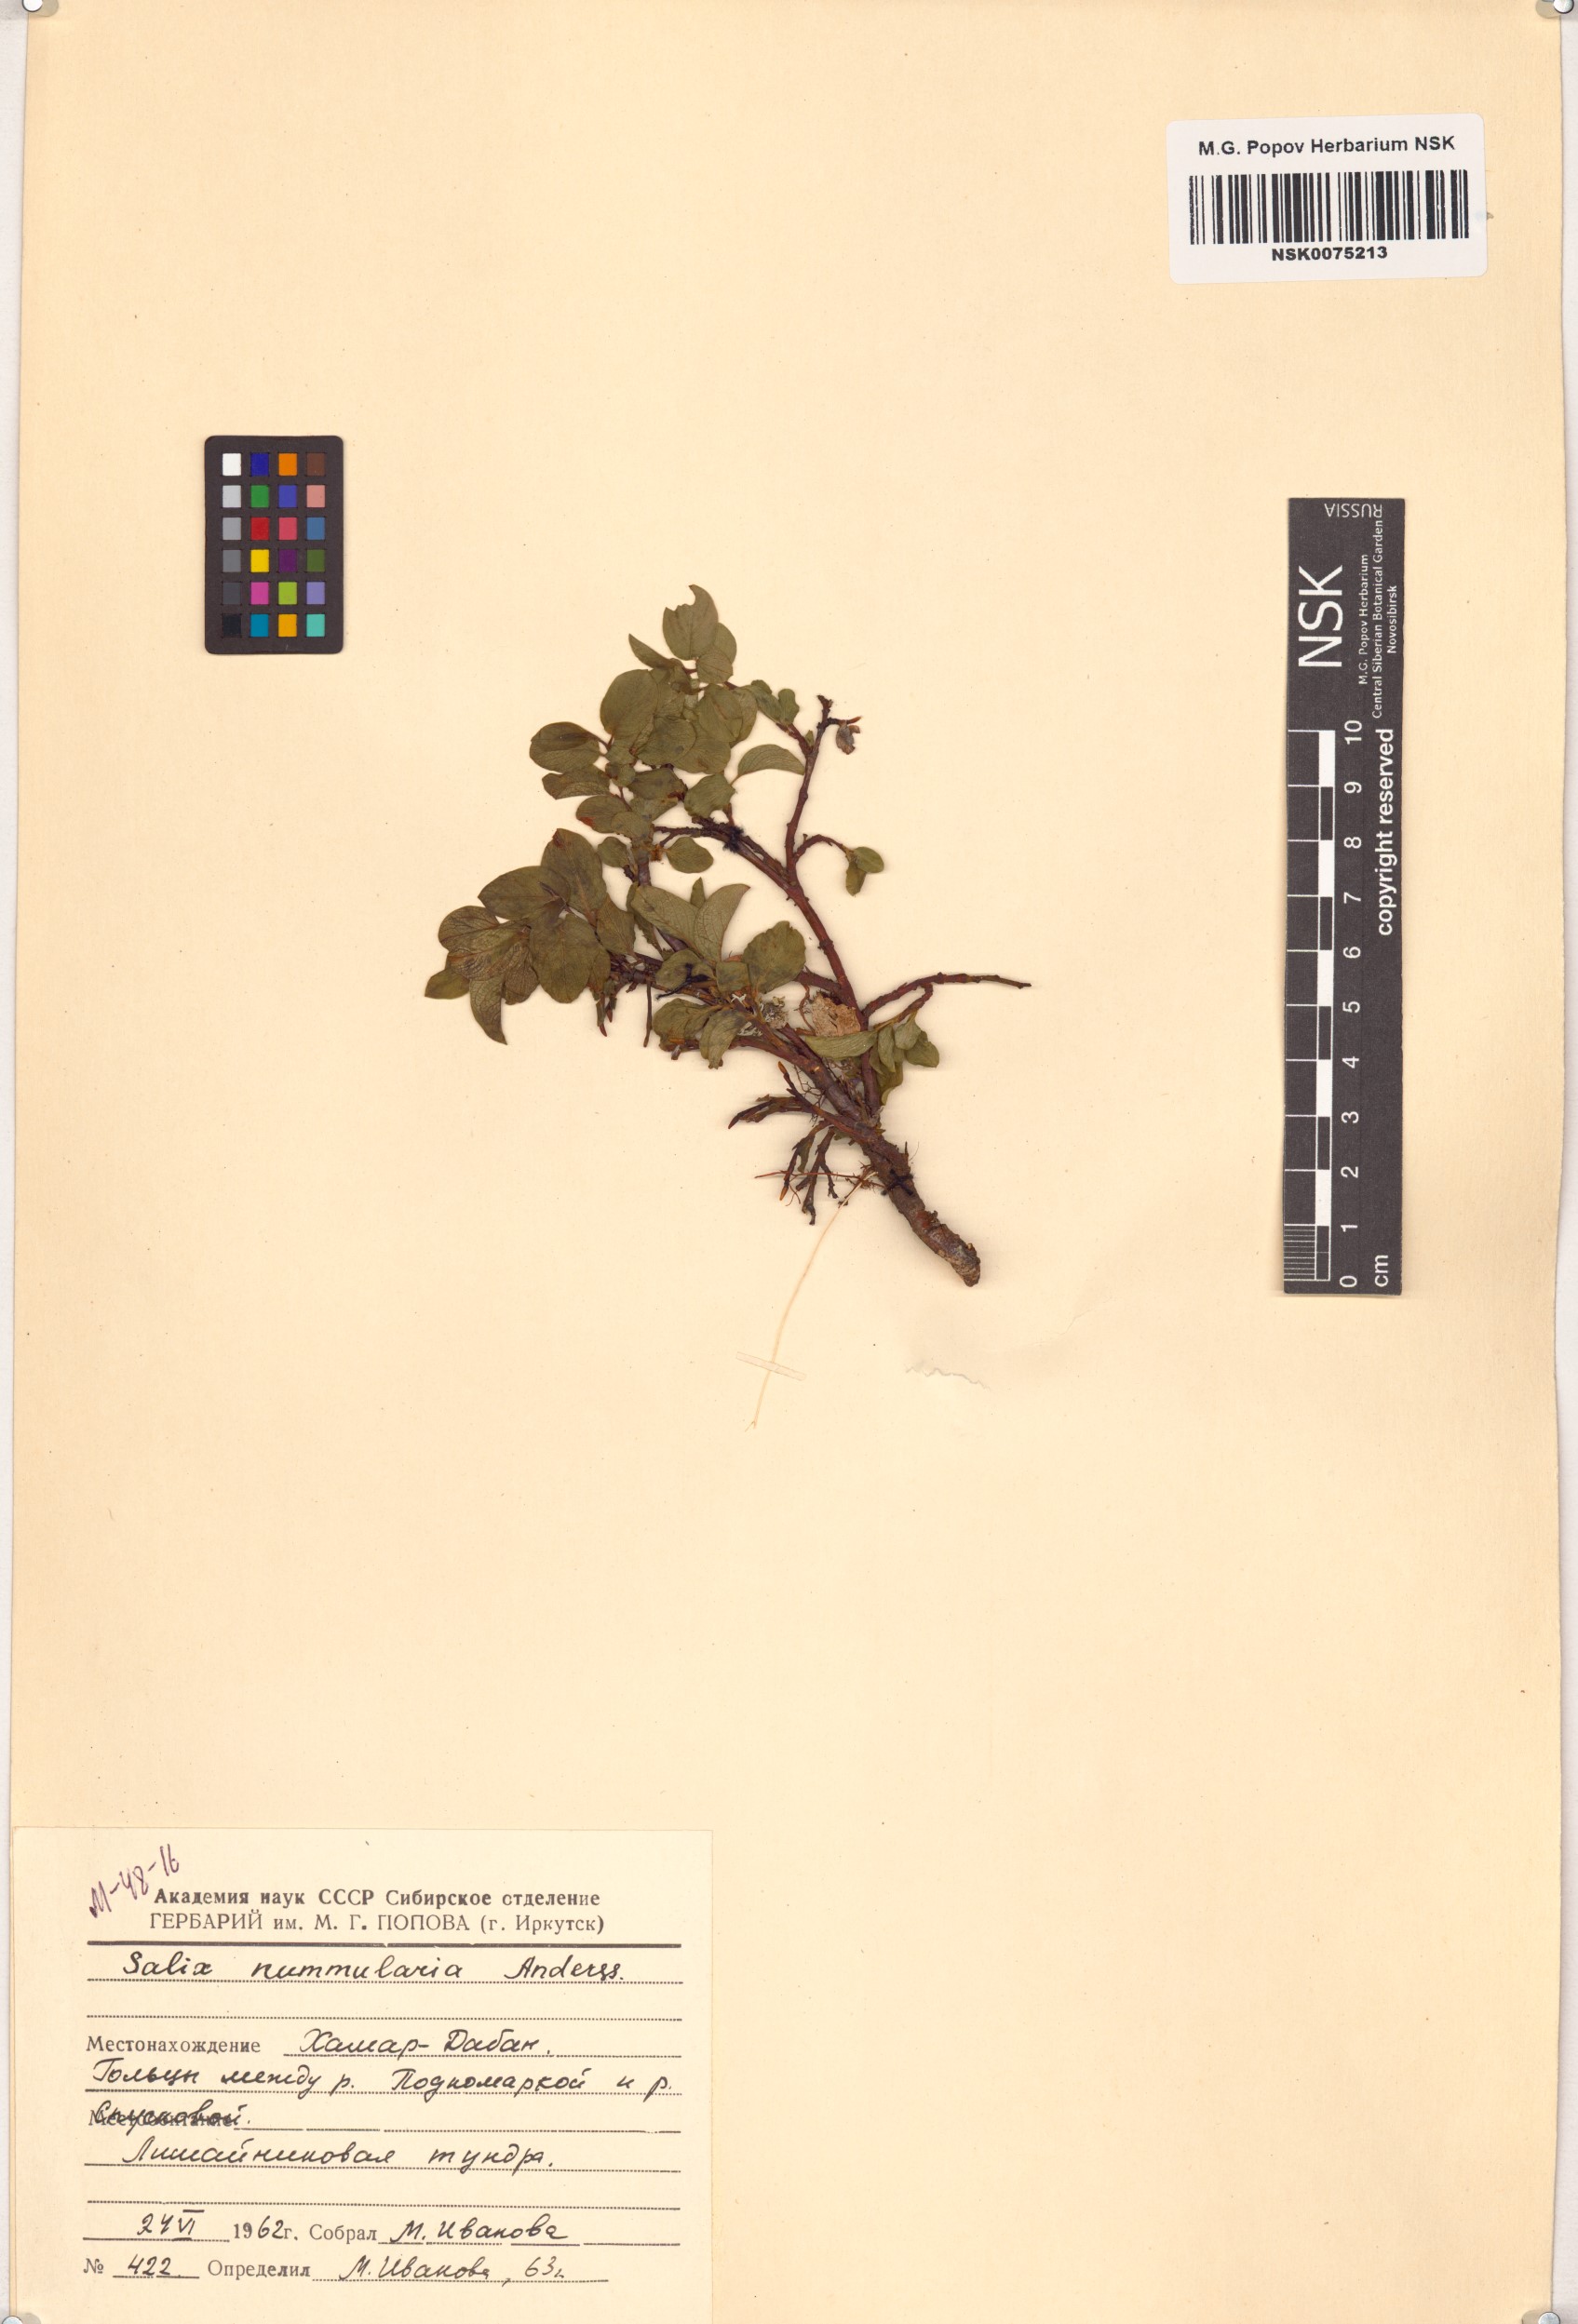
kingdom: Plantae
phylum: Tracheophyta
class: Magnoliopsida
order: Malpighiales
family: Salicaceae
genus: Salix
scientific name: Salix nummularia
